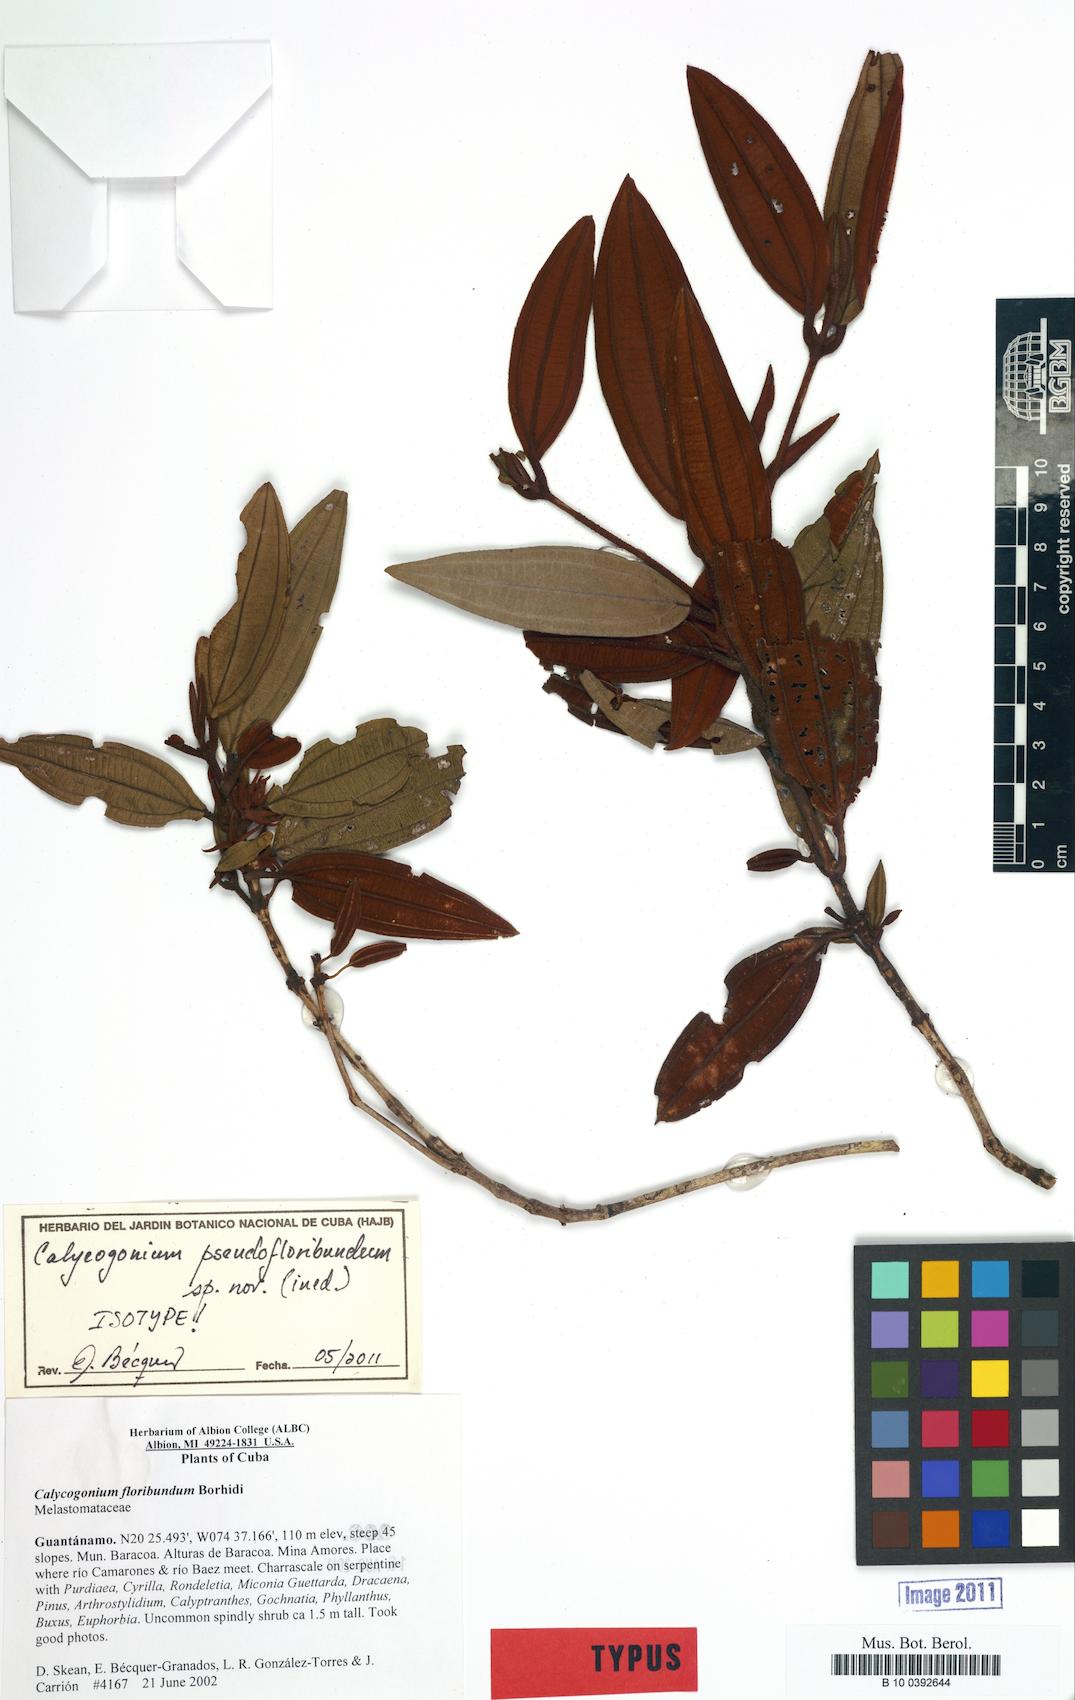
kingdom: Plantae
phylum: Tracheophyta
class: Magnoliopsida
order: Myrtales
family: Melastomataceae
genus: Miconia
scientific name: Miconia pseudofloribunda
